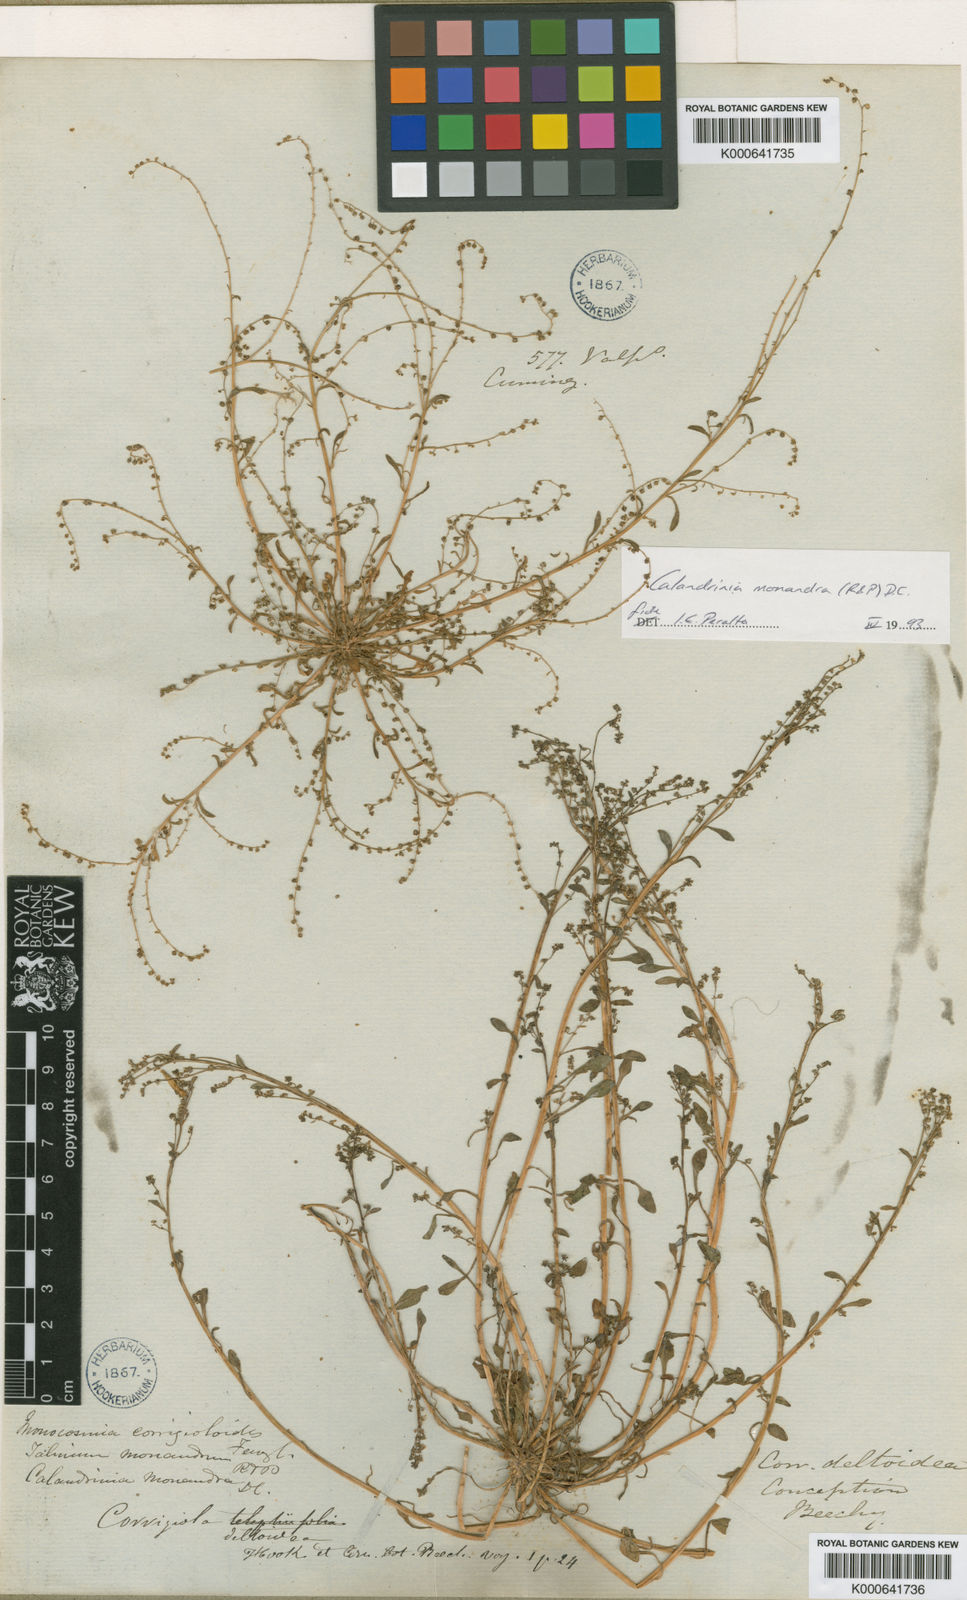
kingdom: Plantae
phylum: Tracheophyta
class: Magnoliopsida
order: Caryophyllales
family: Montiaceae
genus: Calyptridium
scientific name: Calyptridium monandrum
